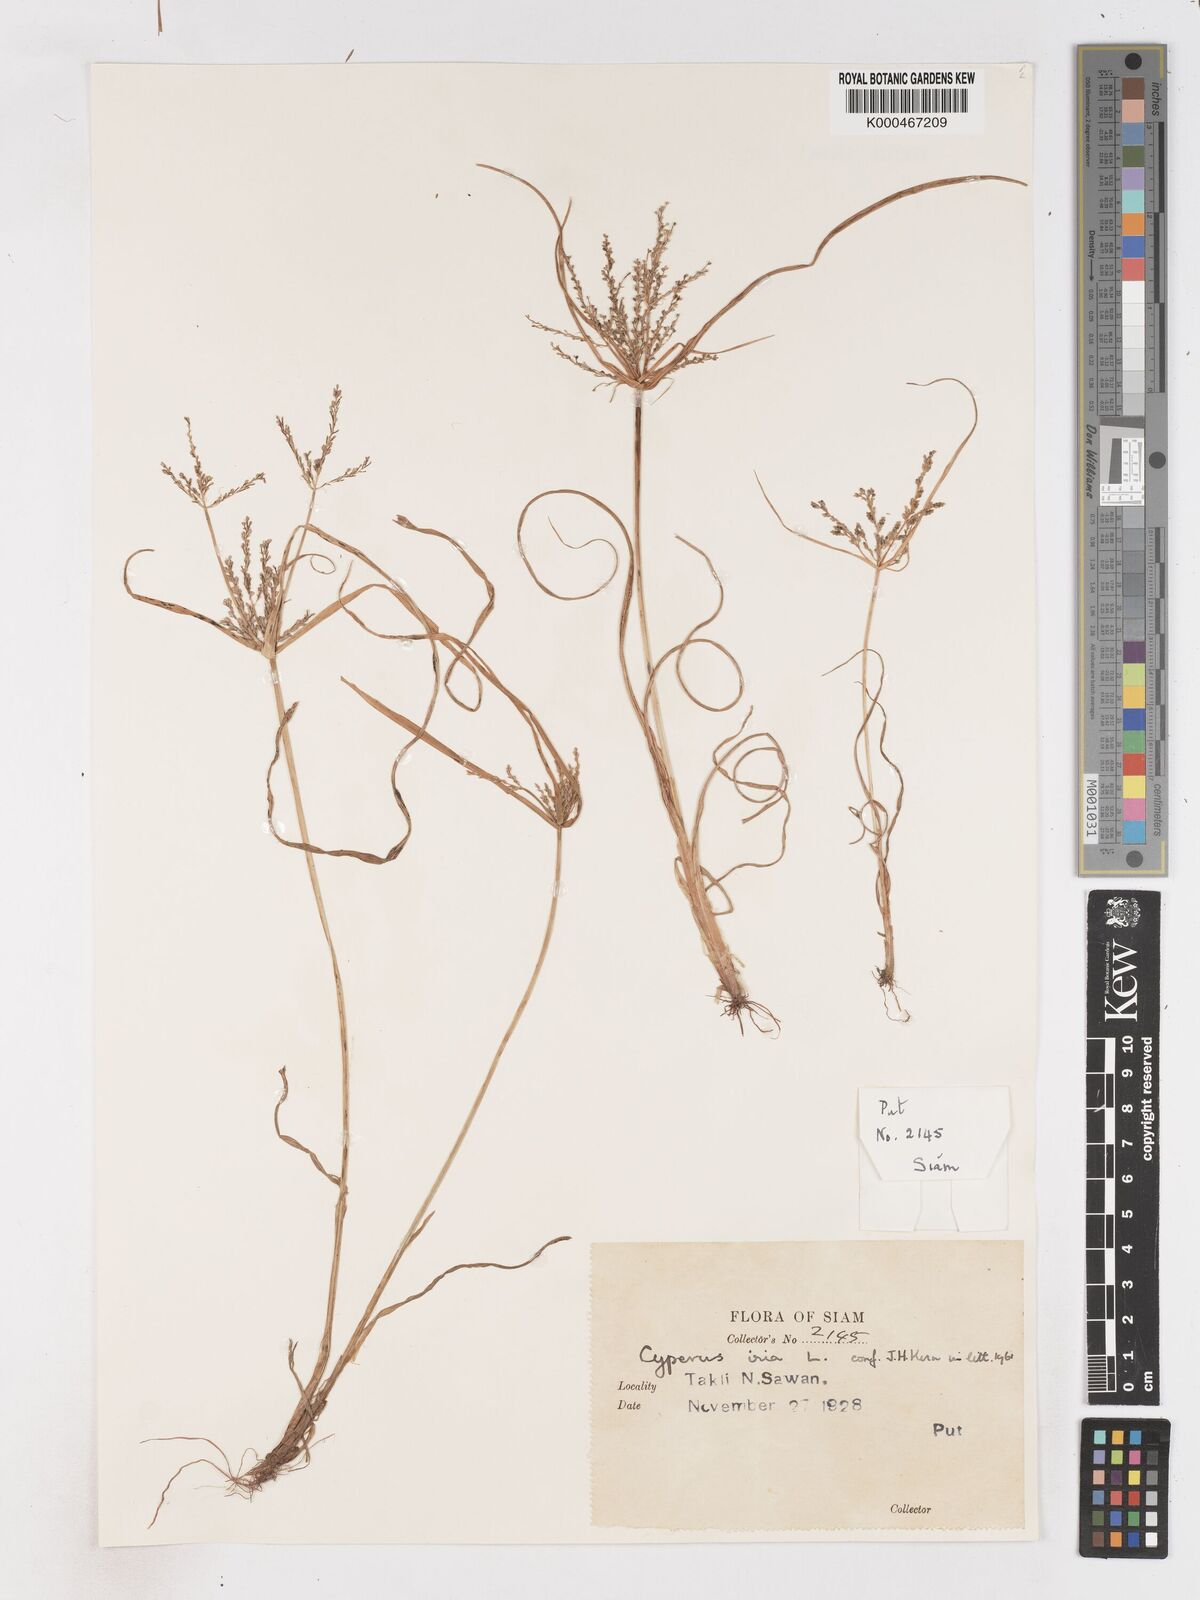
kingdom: Plantae
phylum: Tracheophyta
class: Liliopsida
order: Poales
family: Cyperaceae
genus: Cyperus
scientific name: Cyperus iria
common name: Ricefield flatsedge
